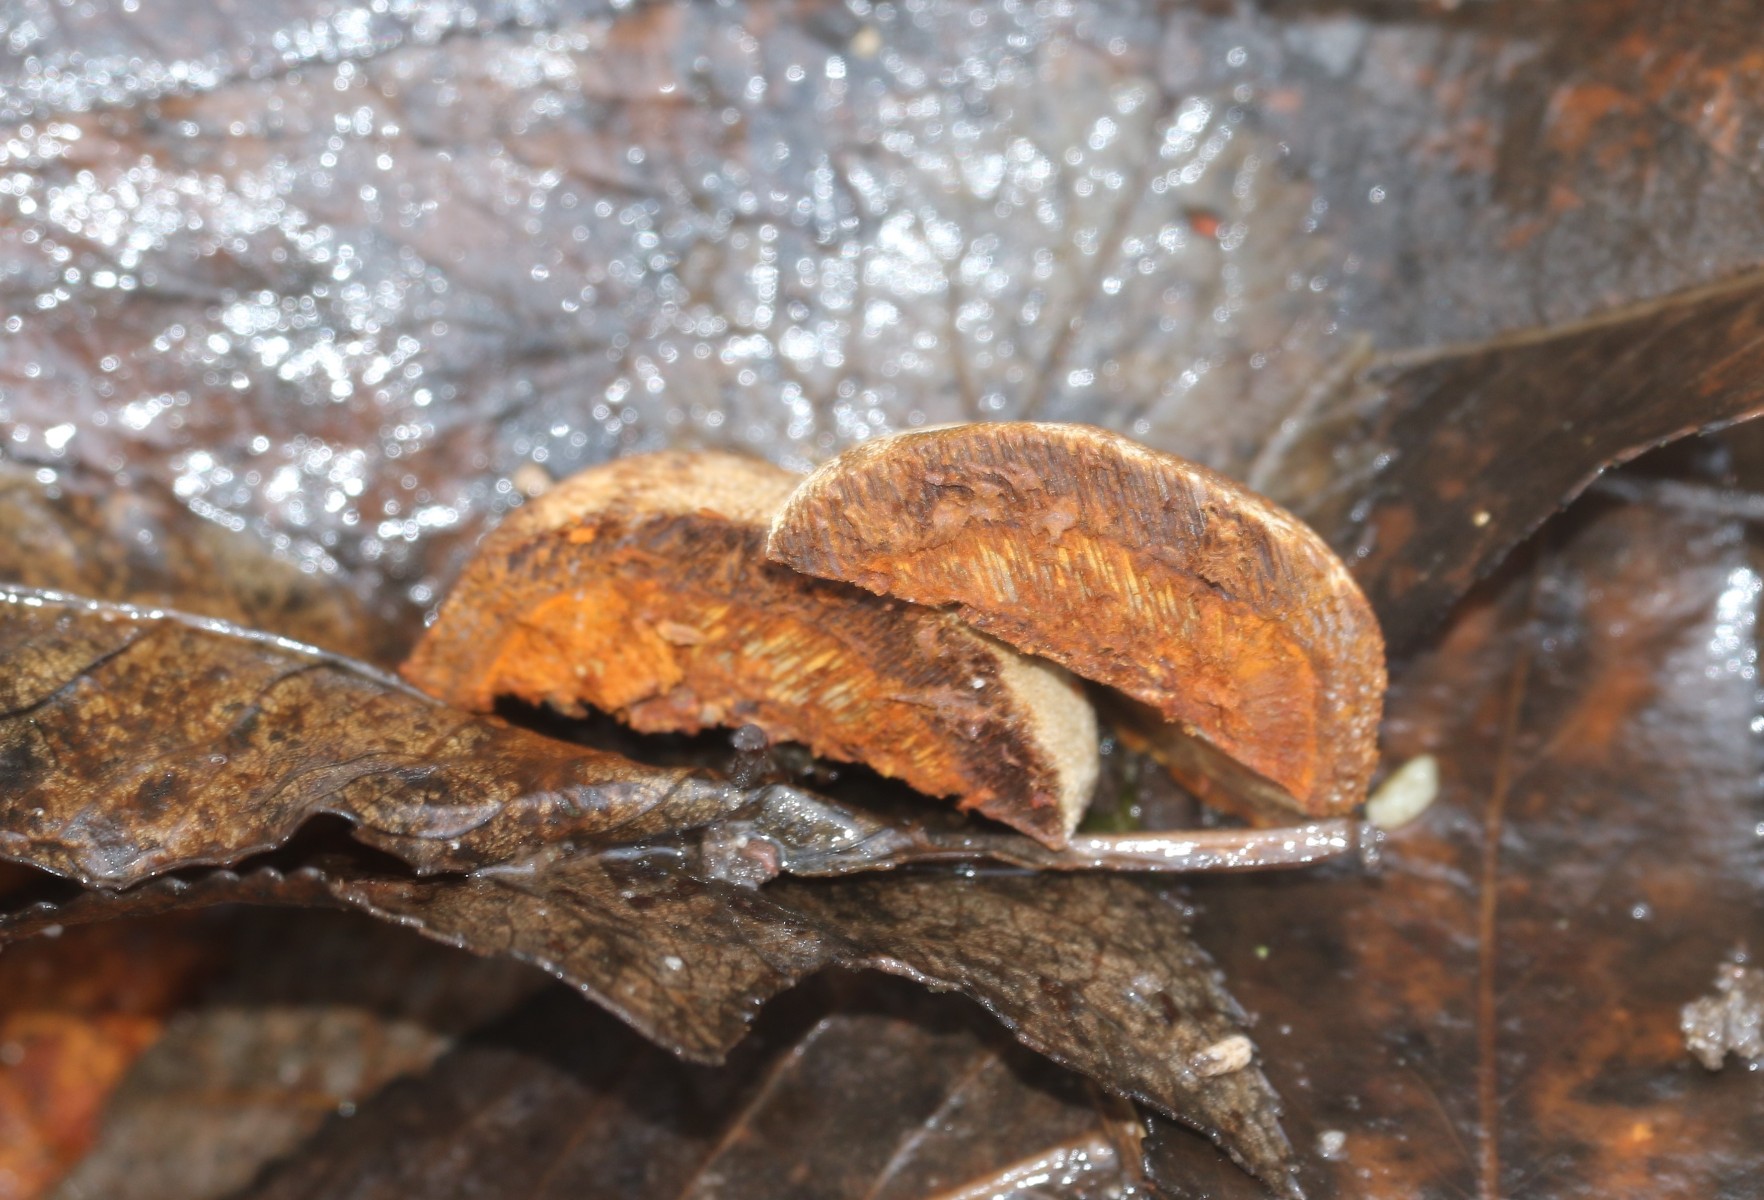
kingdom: Fungi
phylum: Basidiomycota
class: Agaricomycetes
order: Hymenochaetales
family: Hymenochaetaceae
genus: Phellinus
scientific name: Phellinus pomaceus
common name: blomme-ildporesvamp
